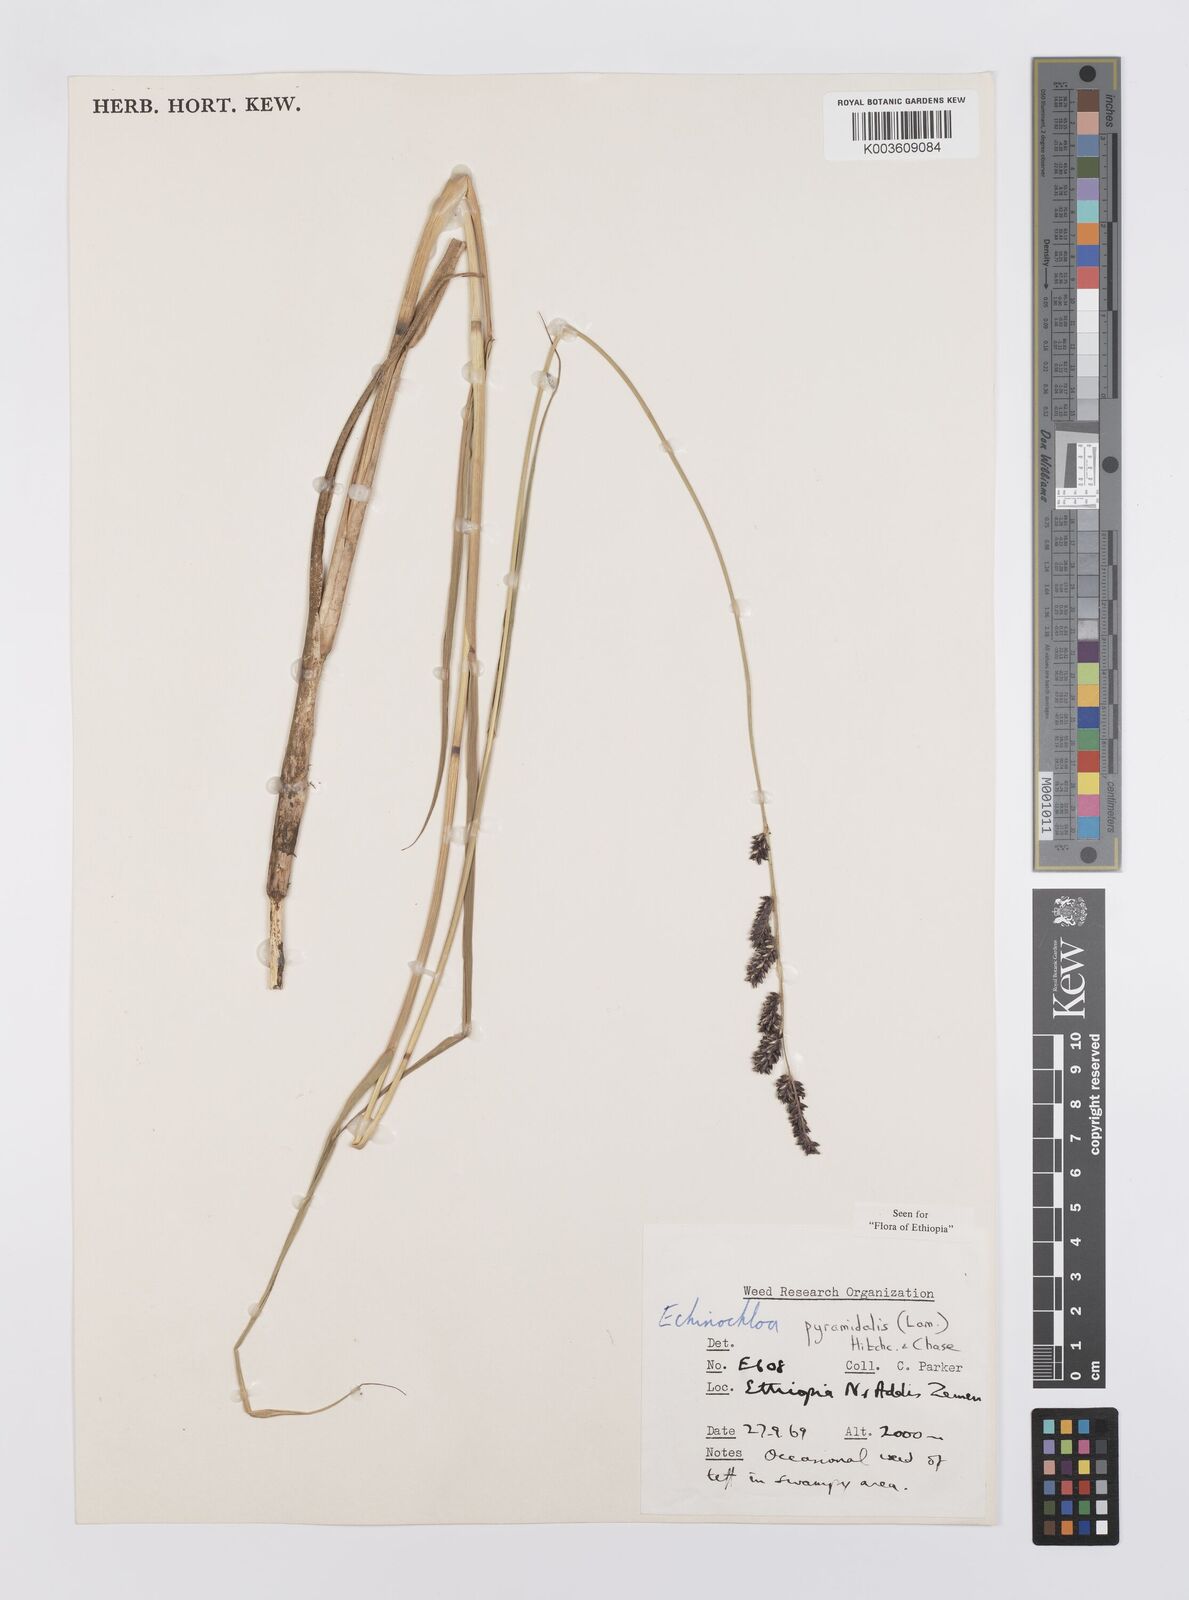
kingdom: Plantae
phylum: Tracheophyta
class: Liliopsida
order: Poales
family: Poaceae
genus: Echinochloa
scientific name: Echinochloa pyramidalis
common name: Antelope grass
